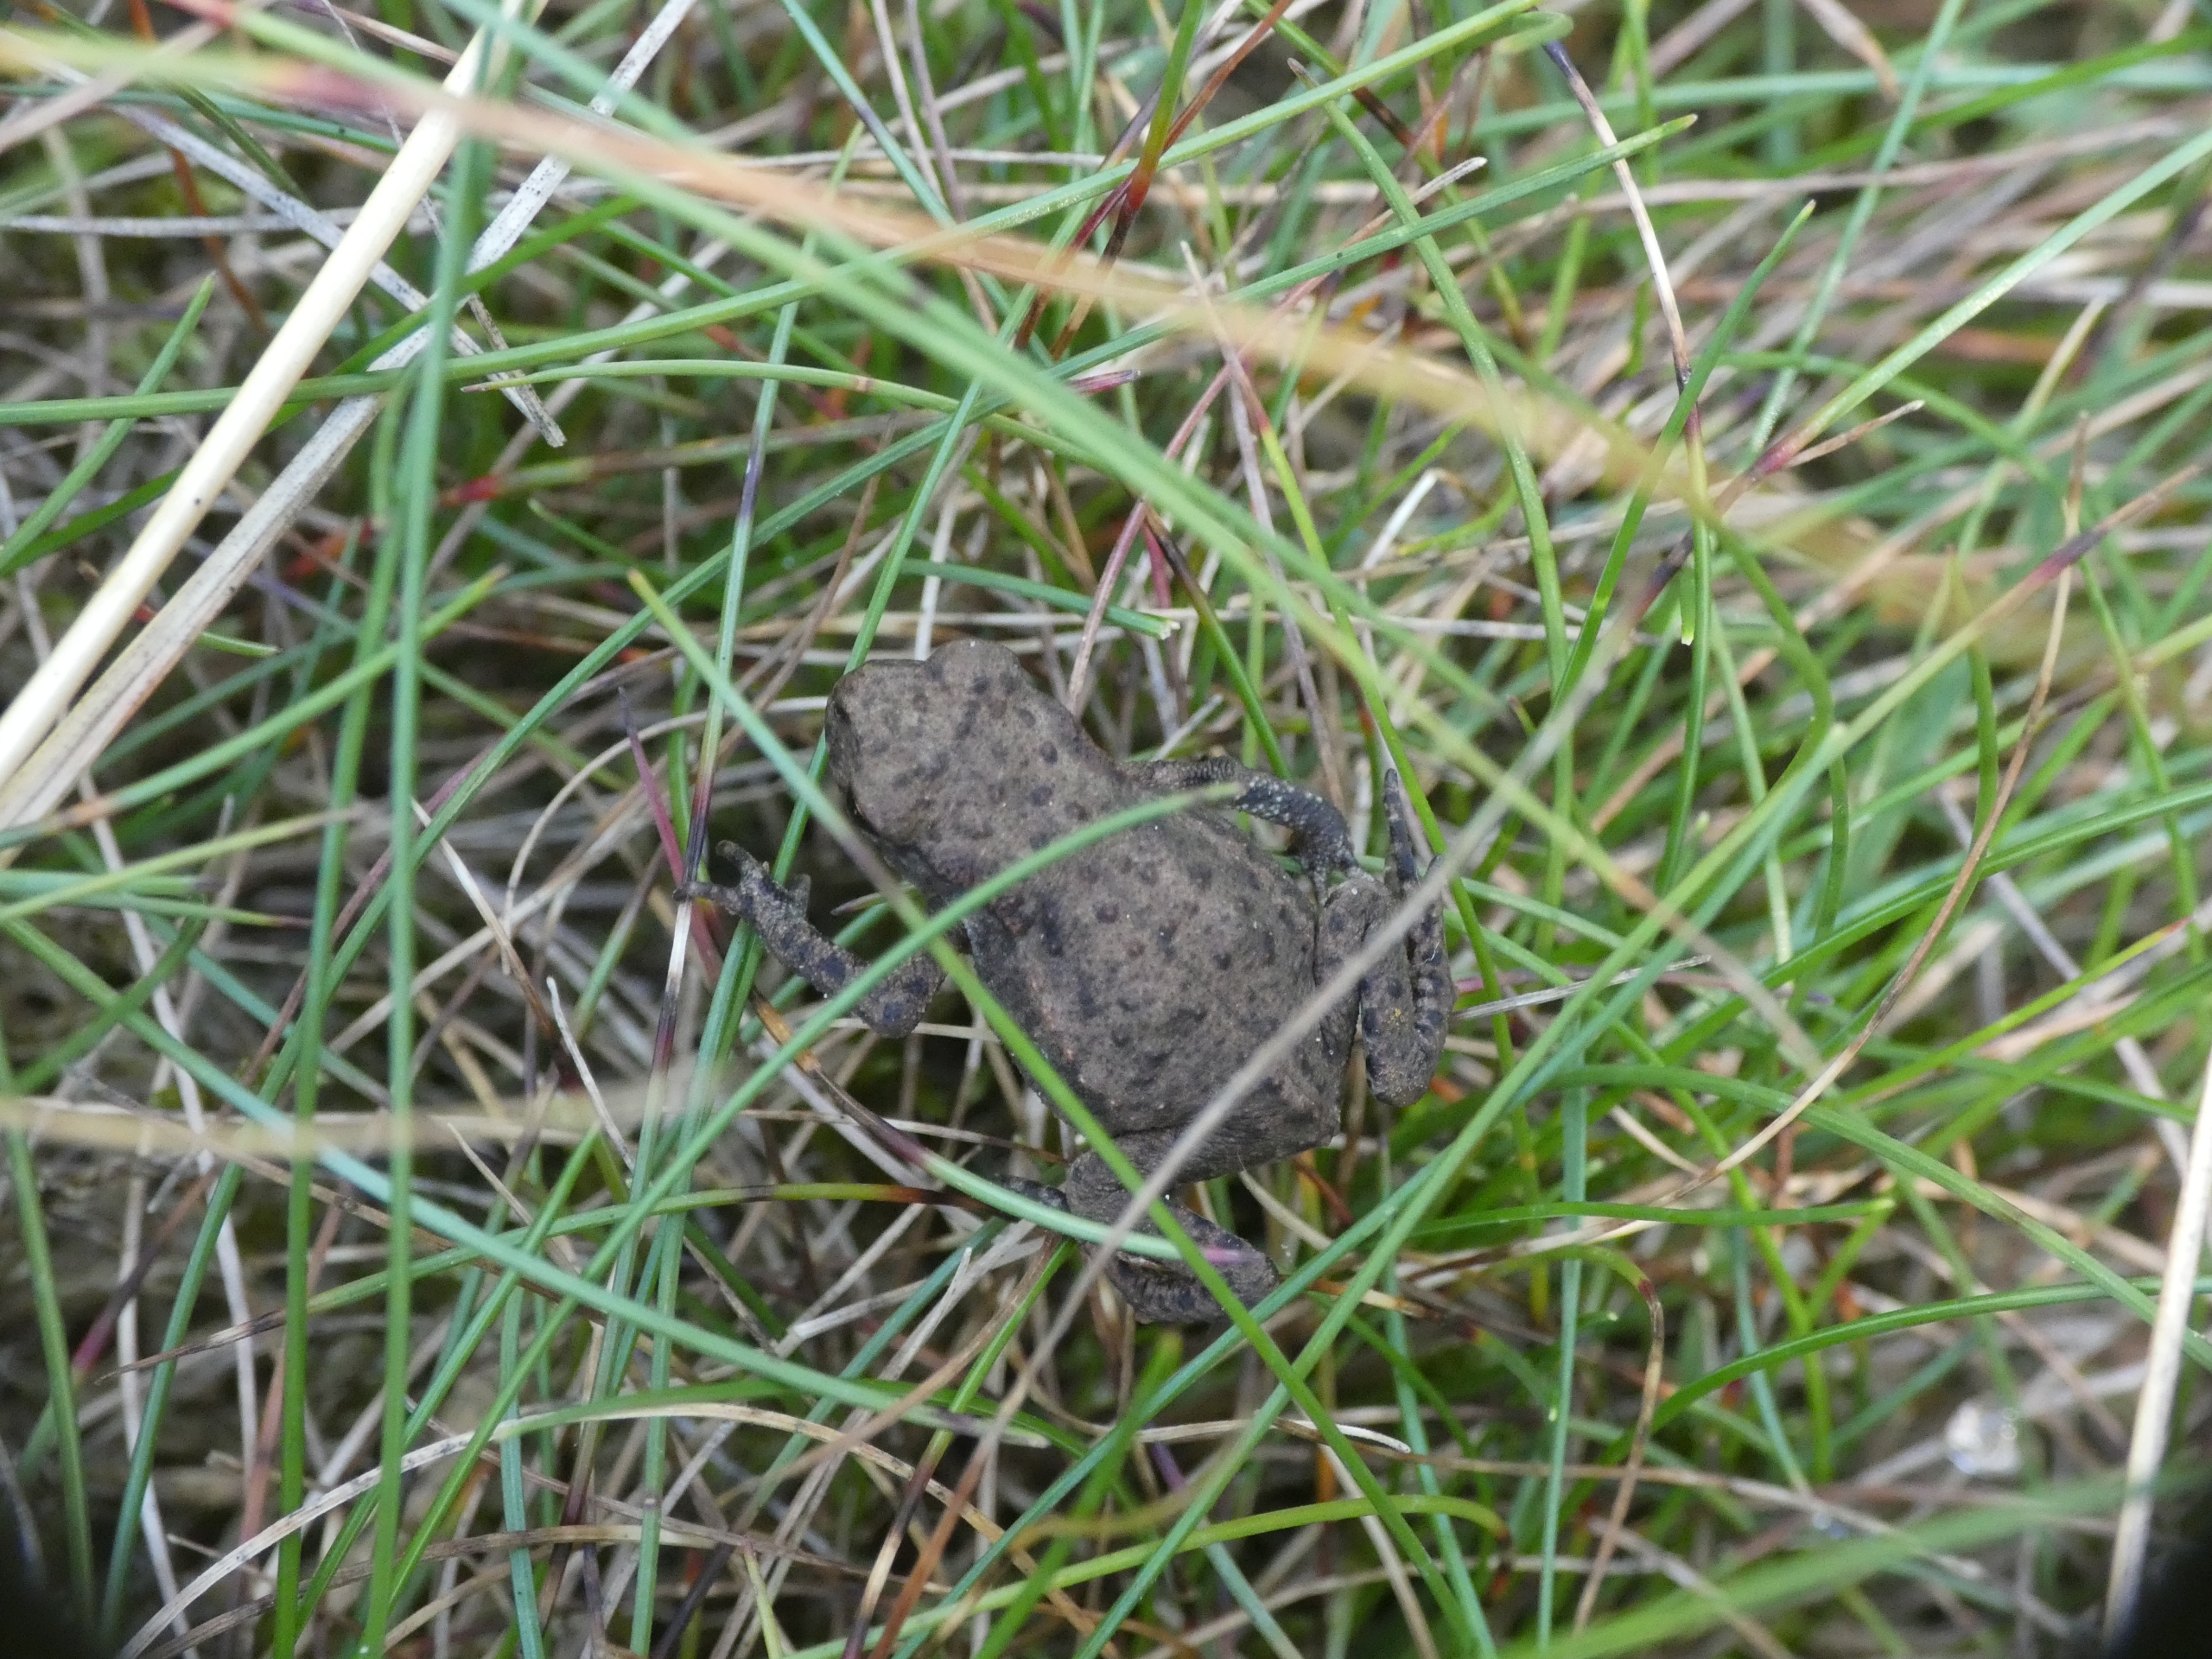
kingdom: Animalia
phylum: Chordata
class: Amphibia
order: Anura
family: Bufonidae
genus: Bufo
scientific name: Bufo bufo
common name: Skrubtudse
